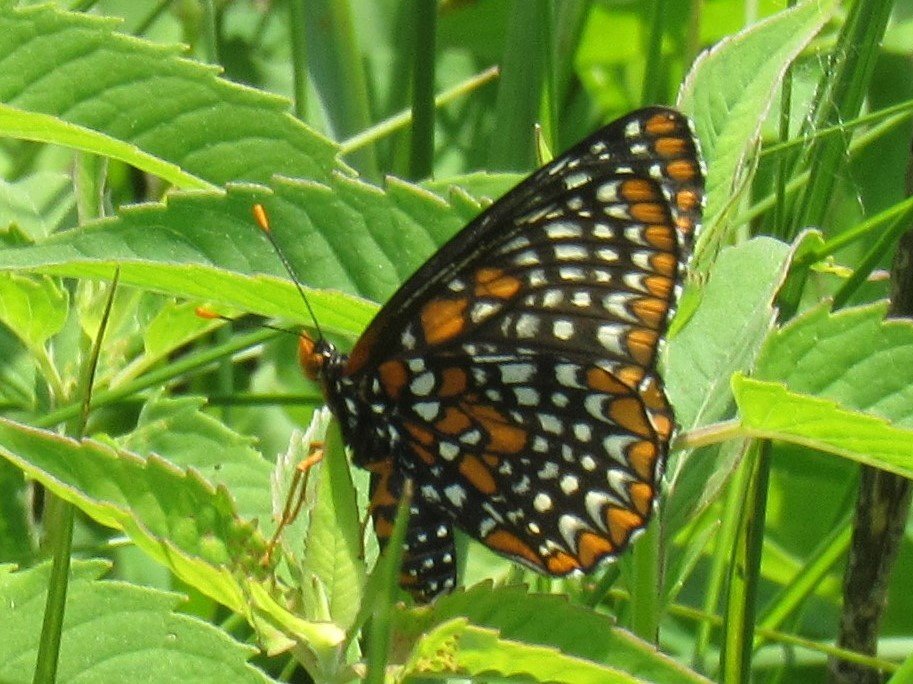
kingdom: Animalia
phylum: Arthropoda
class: Insecta
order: Lepidoptera
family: Nymphalidae
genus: Euphydryas
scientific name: Euphydryas phaeton
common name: Baltimore Checkerspot
